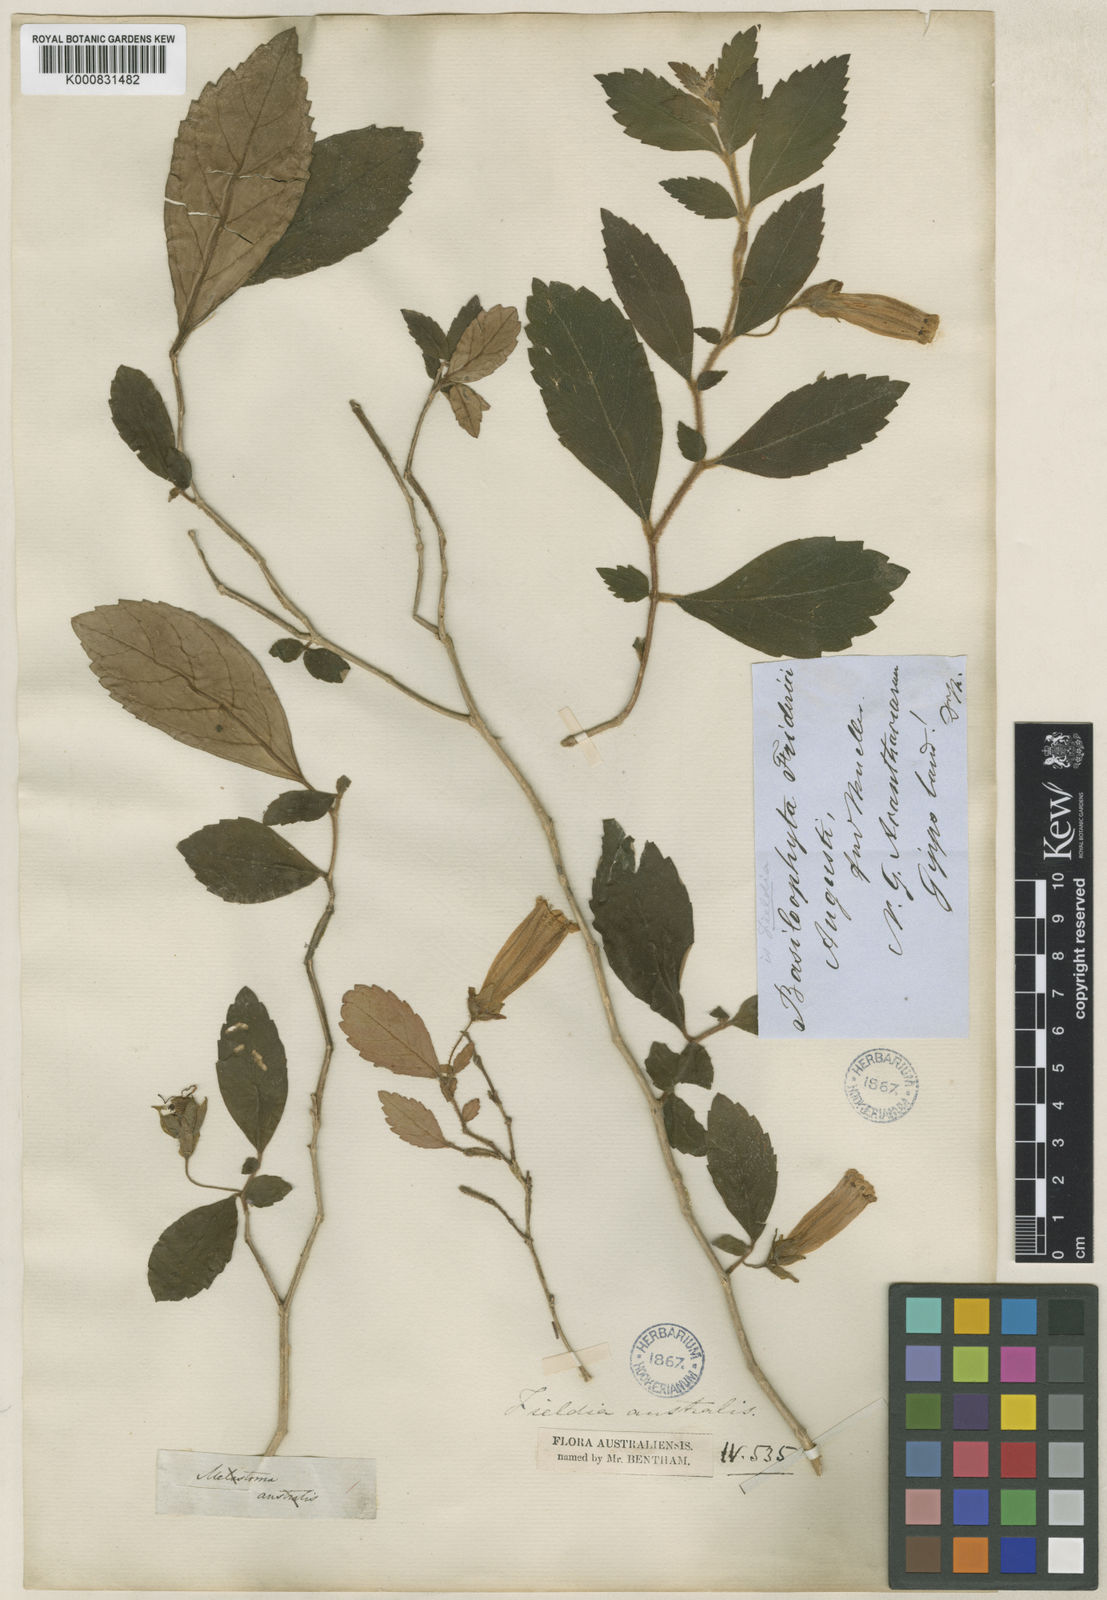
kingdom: Plantae
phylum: Tracheophyta
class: Magnoliopsida
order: Lamiales
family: Gesneriaceae
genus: Fieldia
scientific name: Fieldia australis
